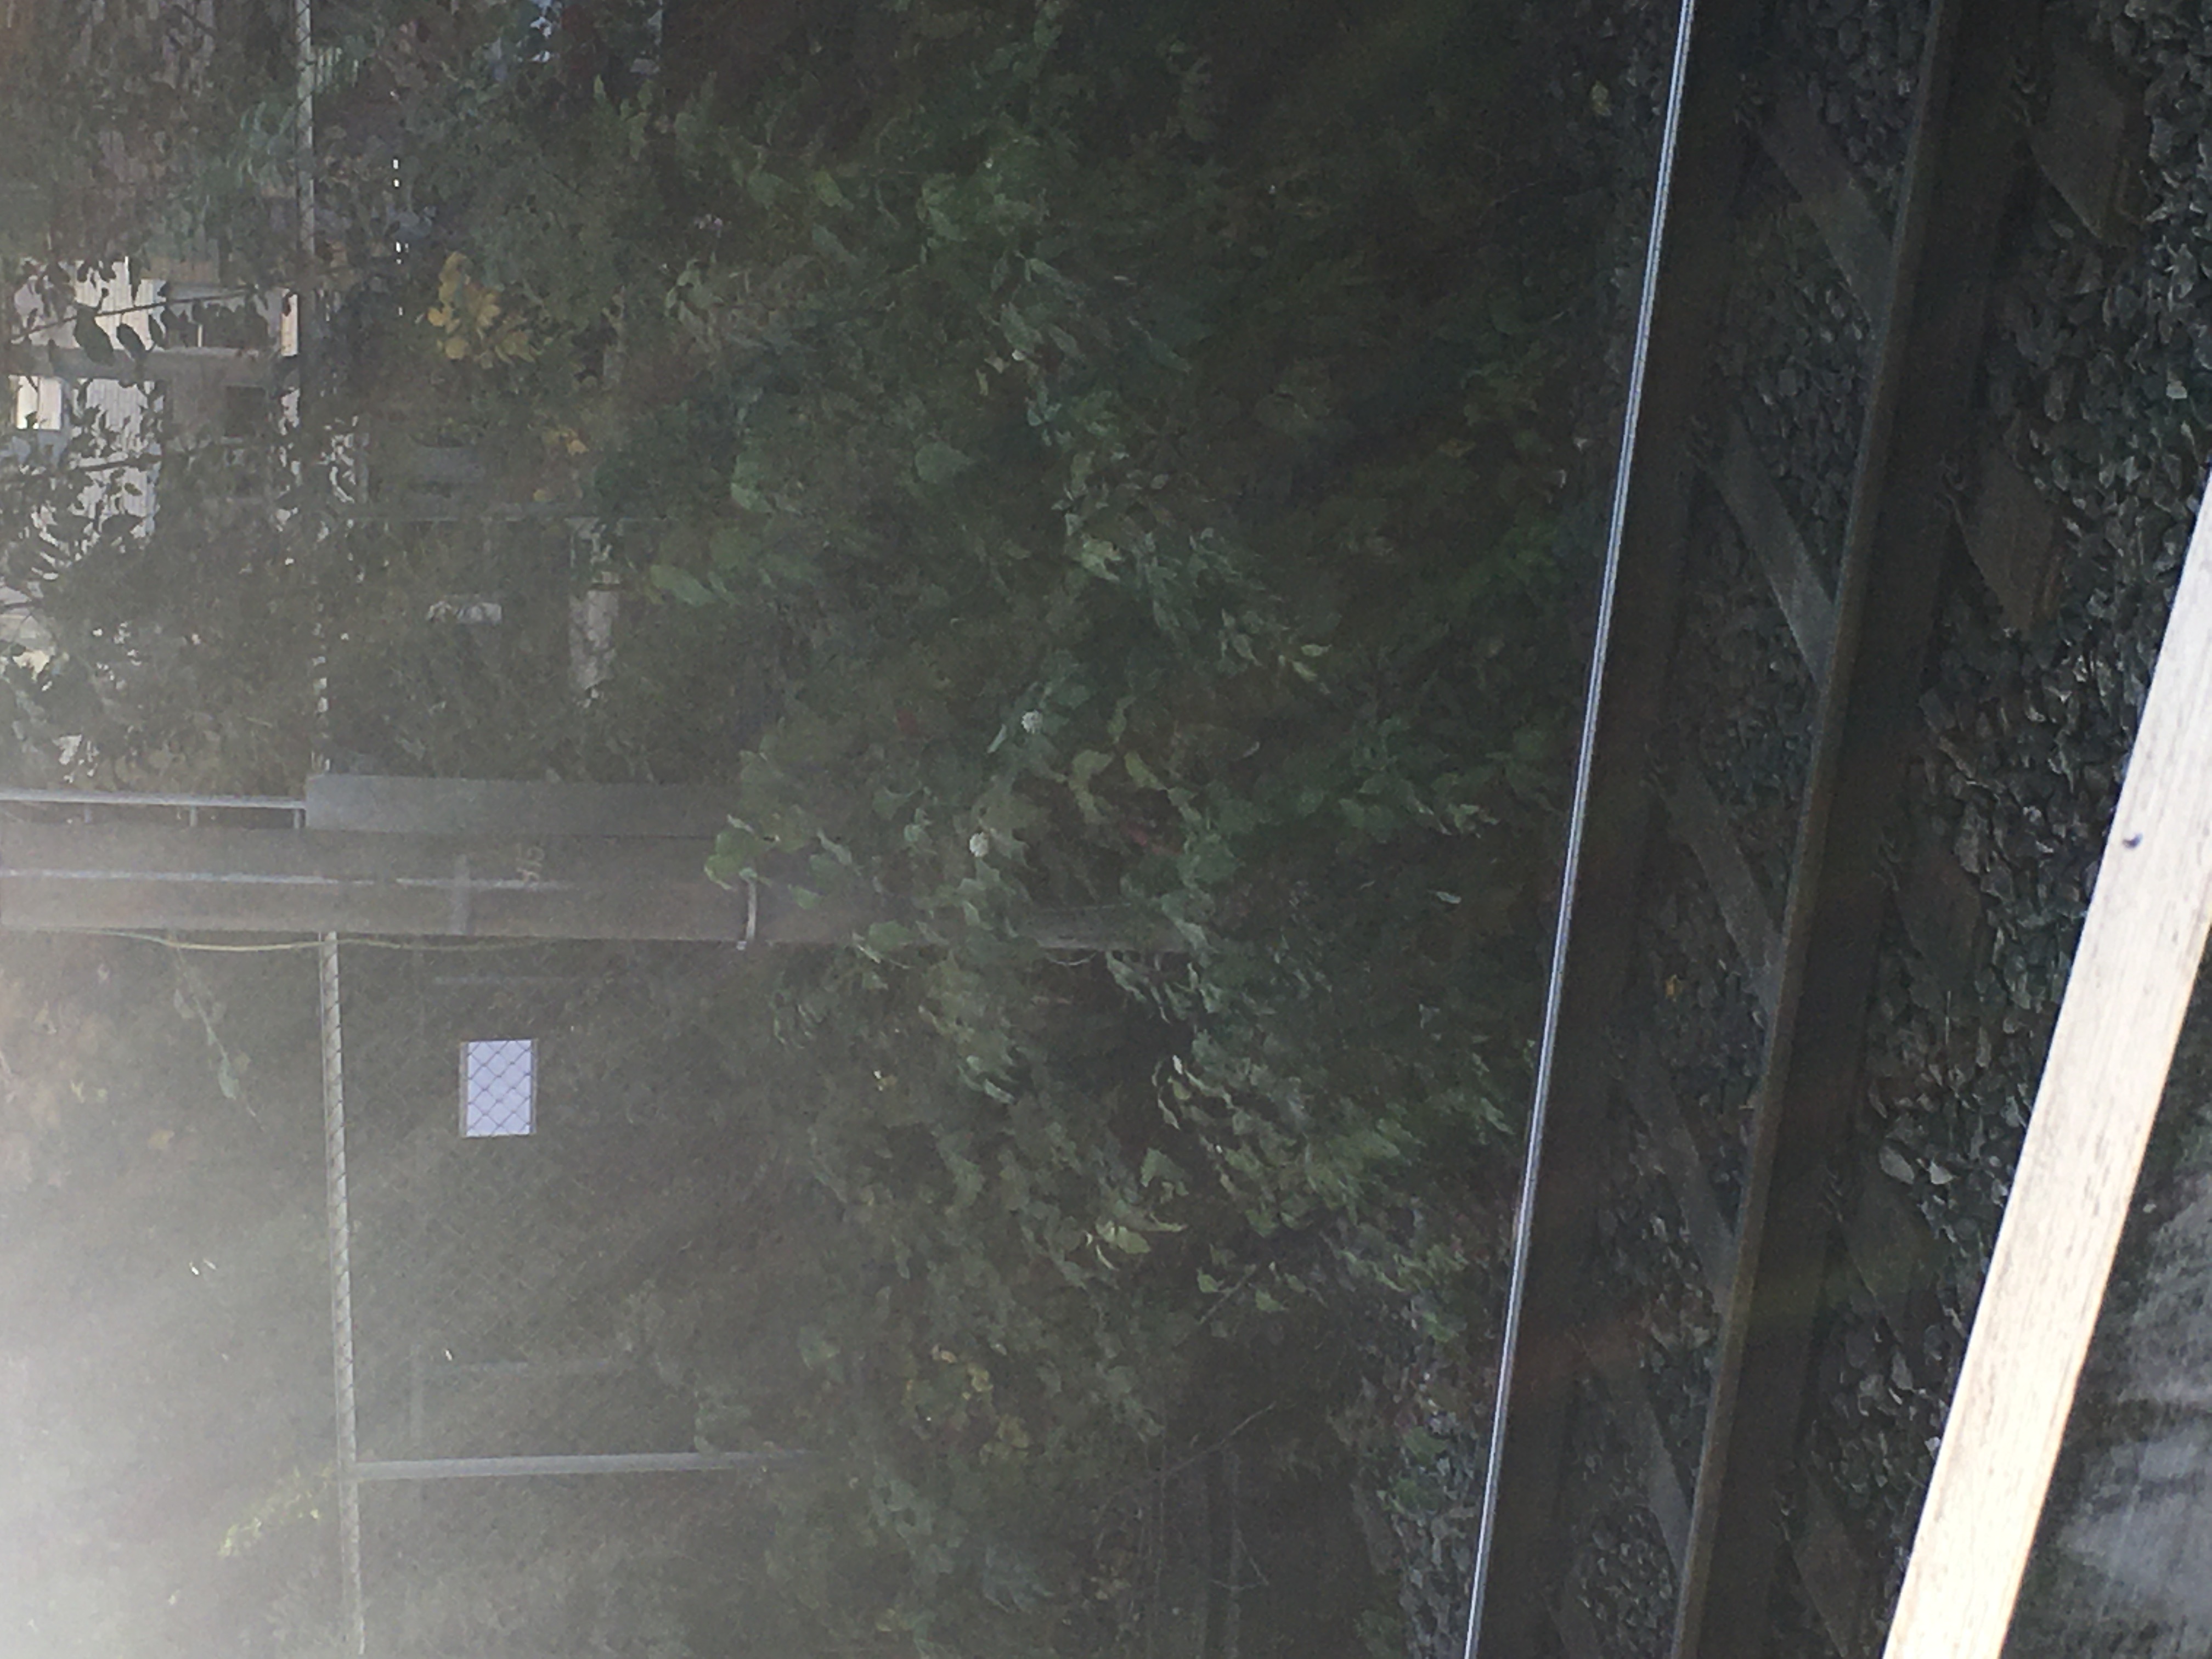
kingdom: Plantae
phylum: Tracheophyta
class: Magnoliopsida
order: Cornales
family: Cornaceae
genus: Cornus
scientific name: Cornus sericea
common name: alaskakornell
